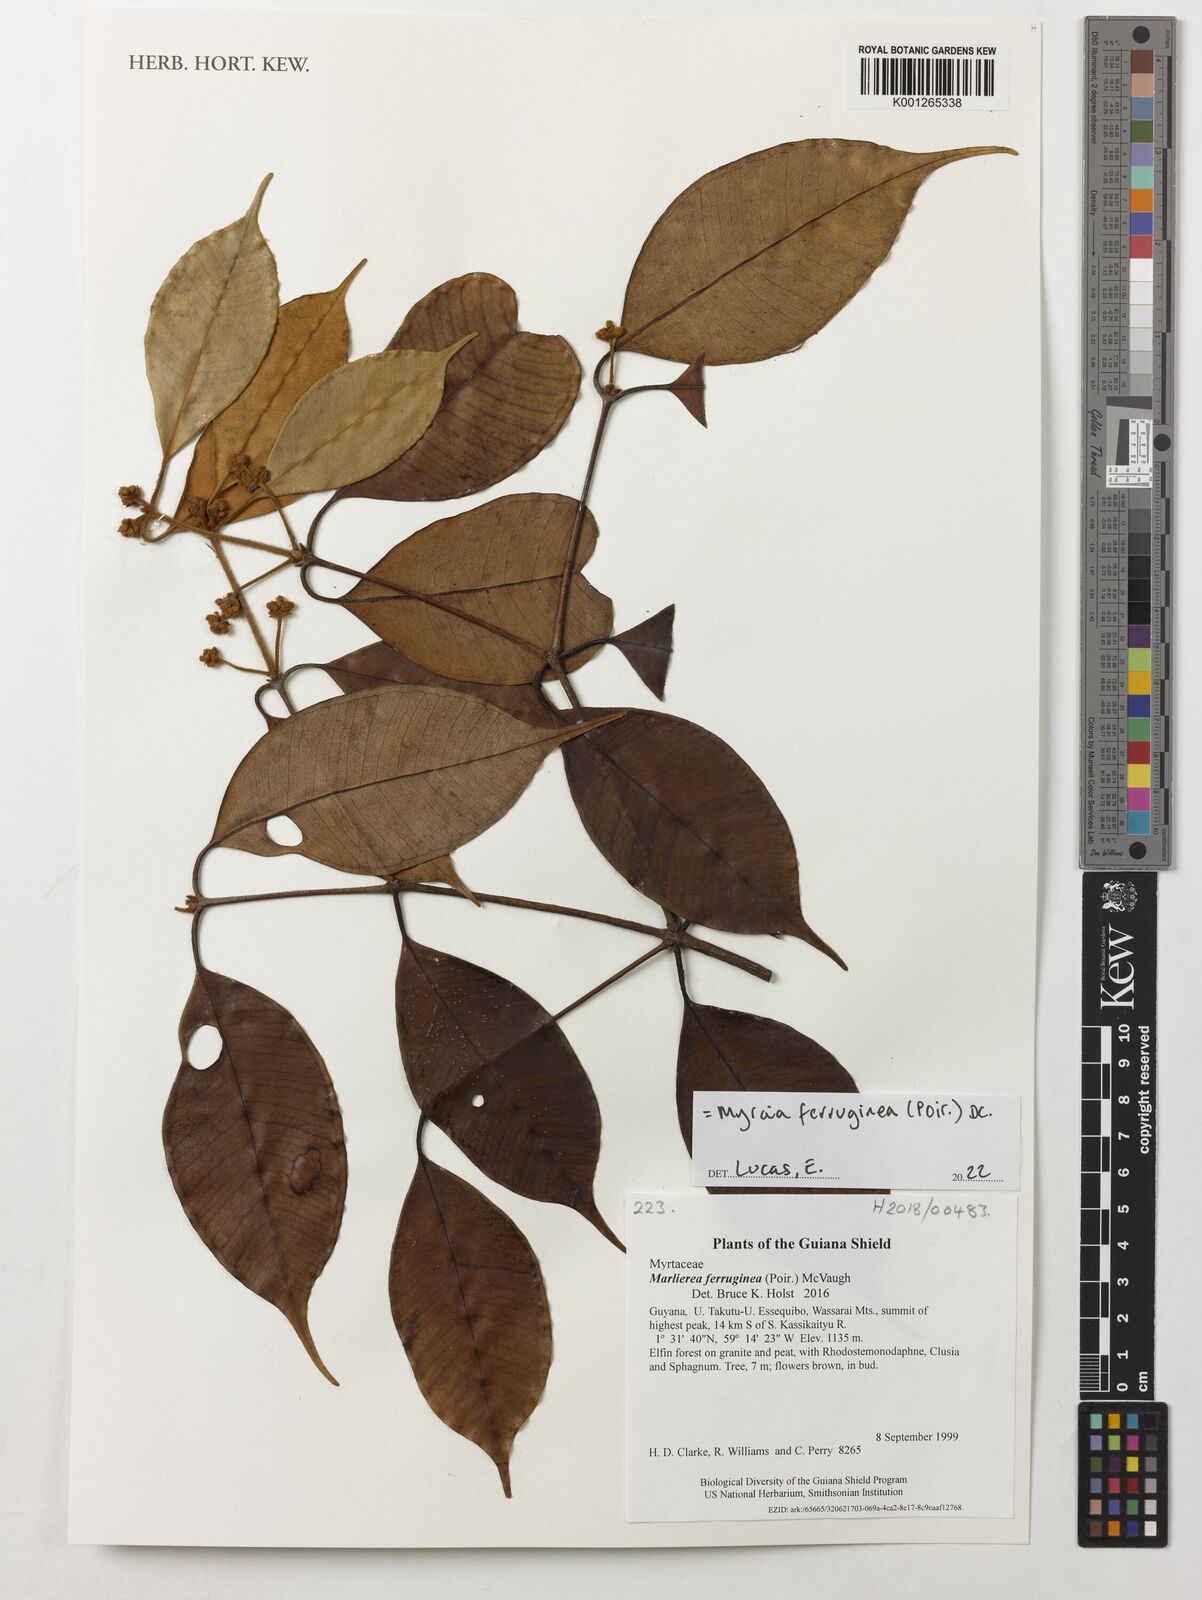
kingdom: Plantae
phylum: Tracheophyta
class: Magnoliopsida
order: Myrtales
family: Myrtaceae
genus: Myrcia
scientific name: Myrcia ferruginea
